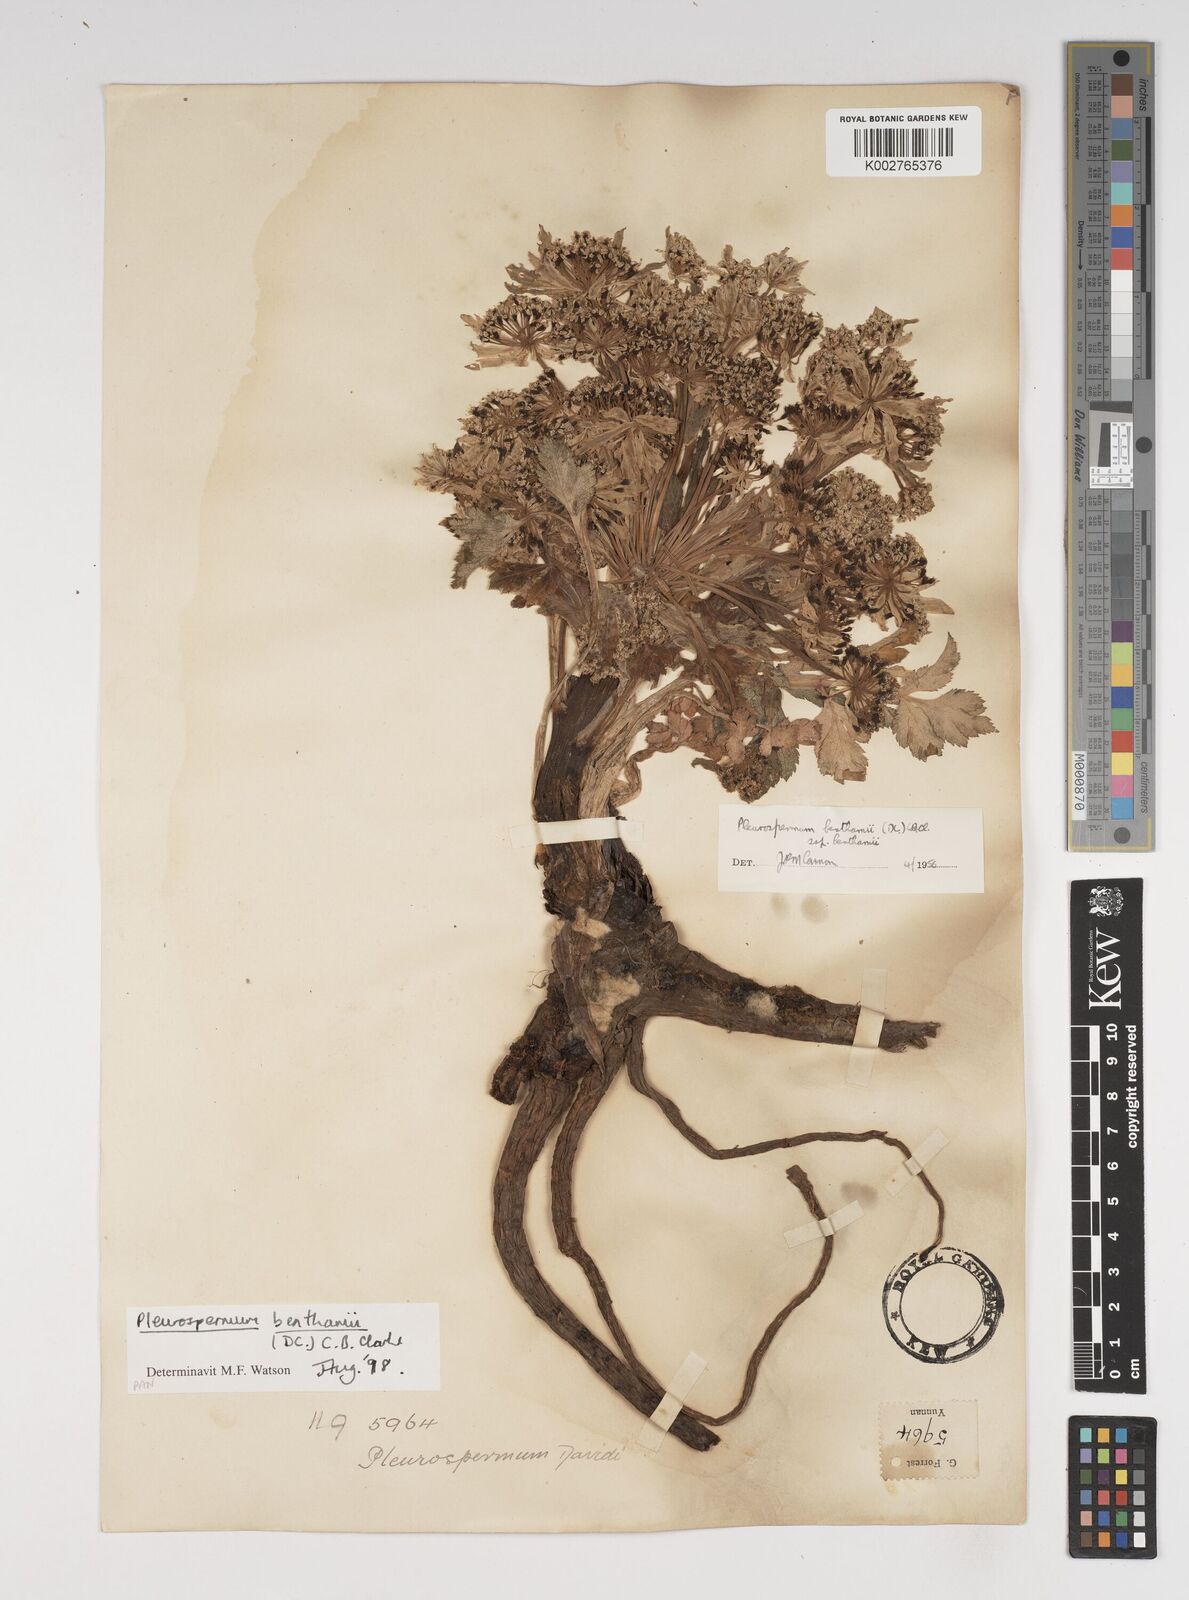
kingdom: Plantae
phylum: Tracheophyta
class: Magnoliopsida
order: Apiales
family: Apiaceae
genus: Hymenidium
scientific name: Hymenidium benthamii
